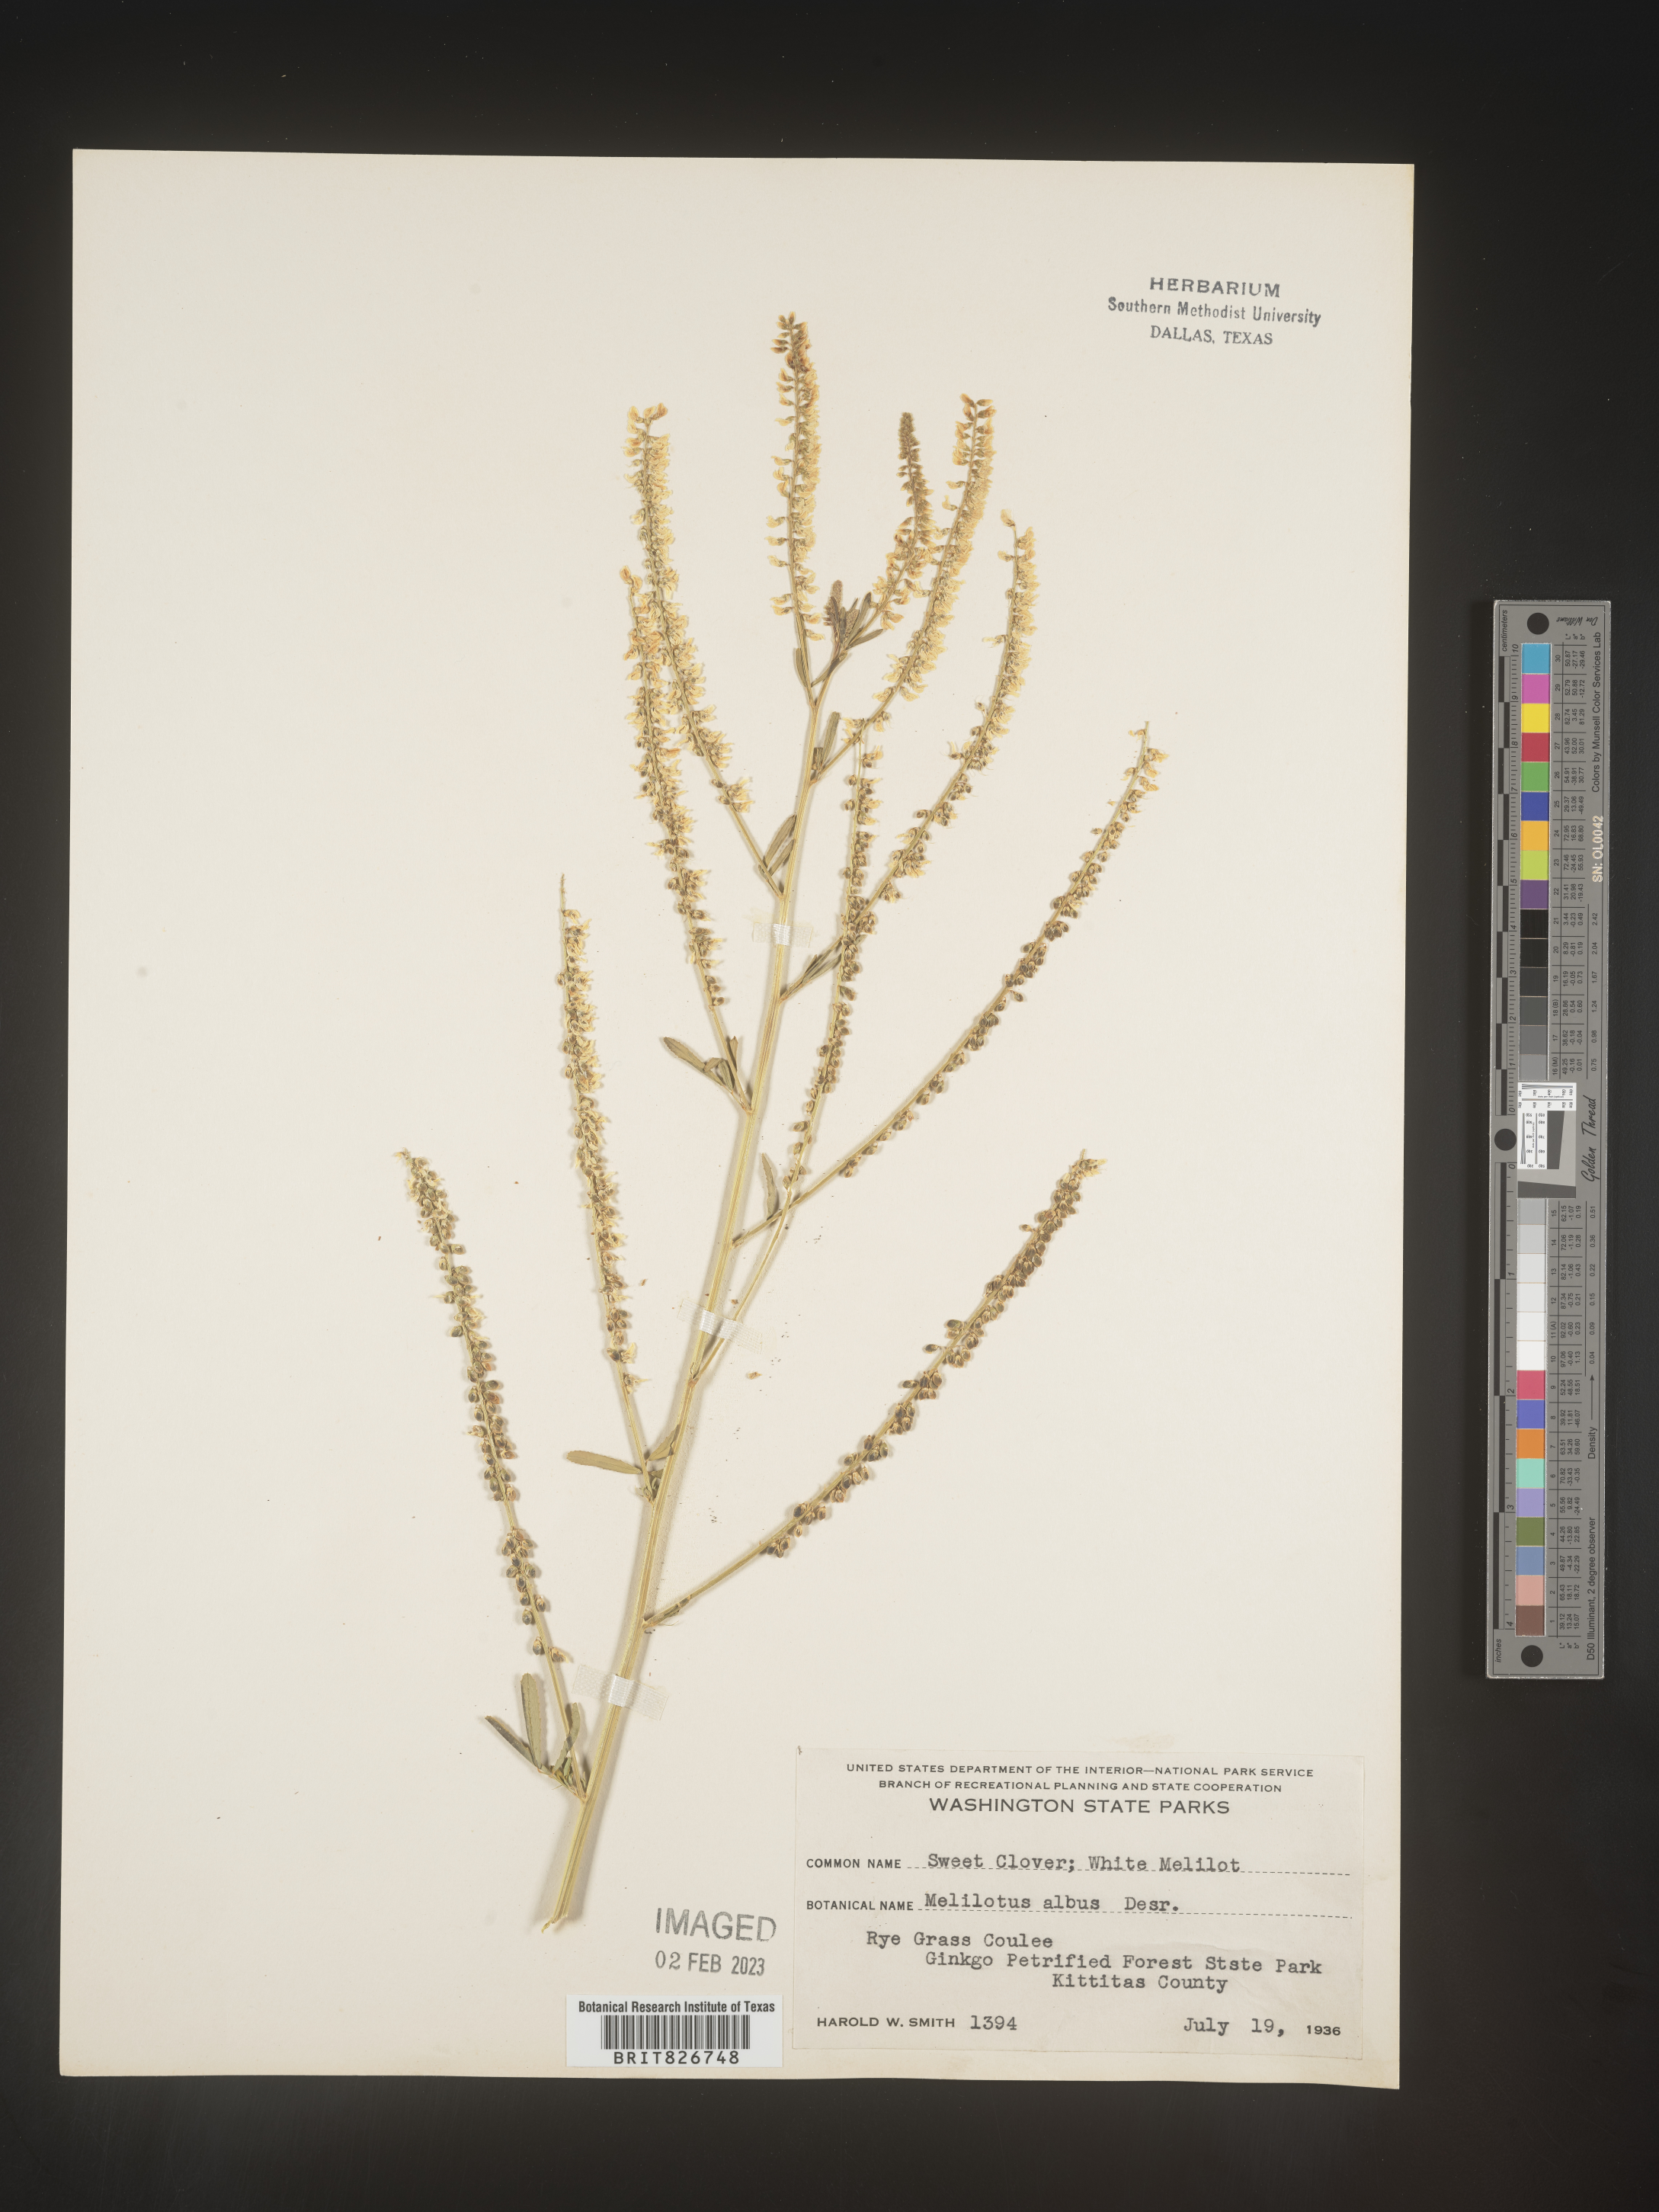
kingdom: Plantae
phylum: Tracheophyta
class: Magnoliopsida
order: Fabales
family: Fabaceae
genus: Melilotus
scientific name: Melilotus albus
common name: White melilot
